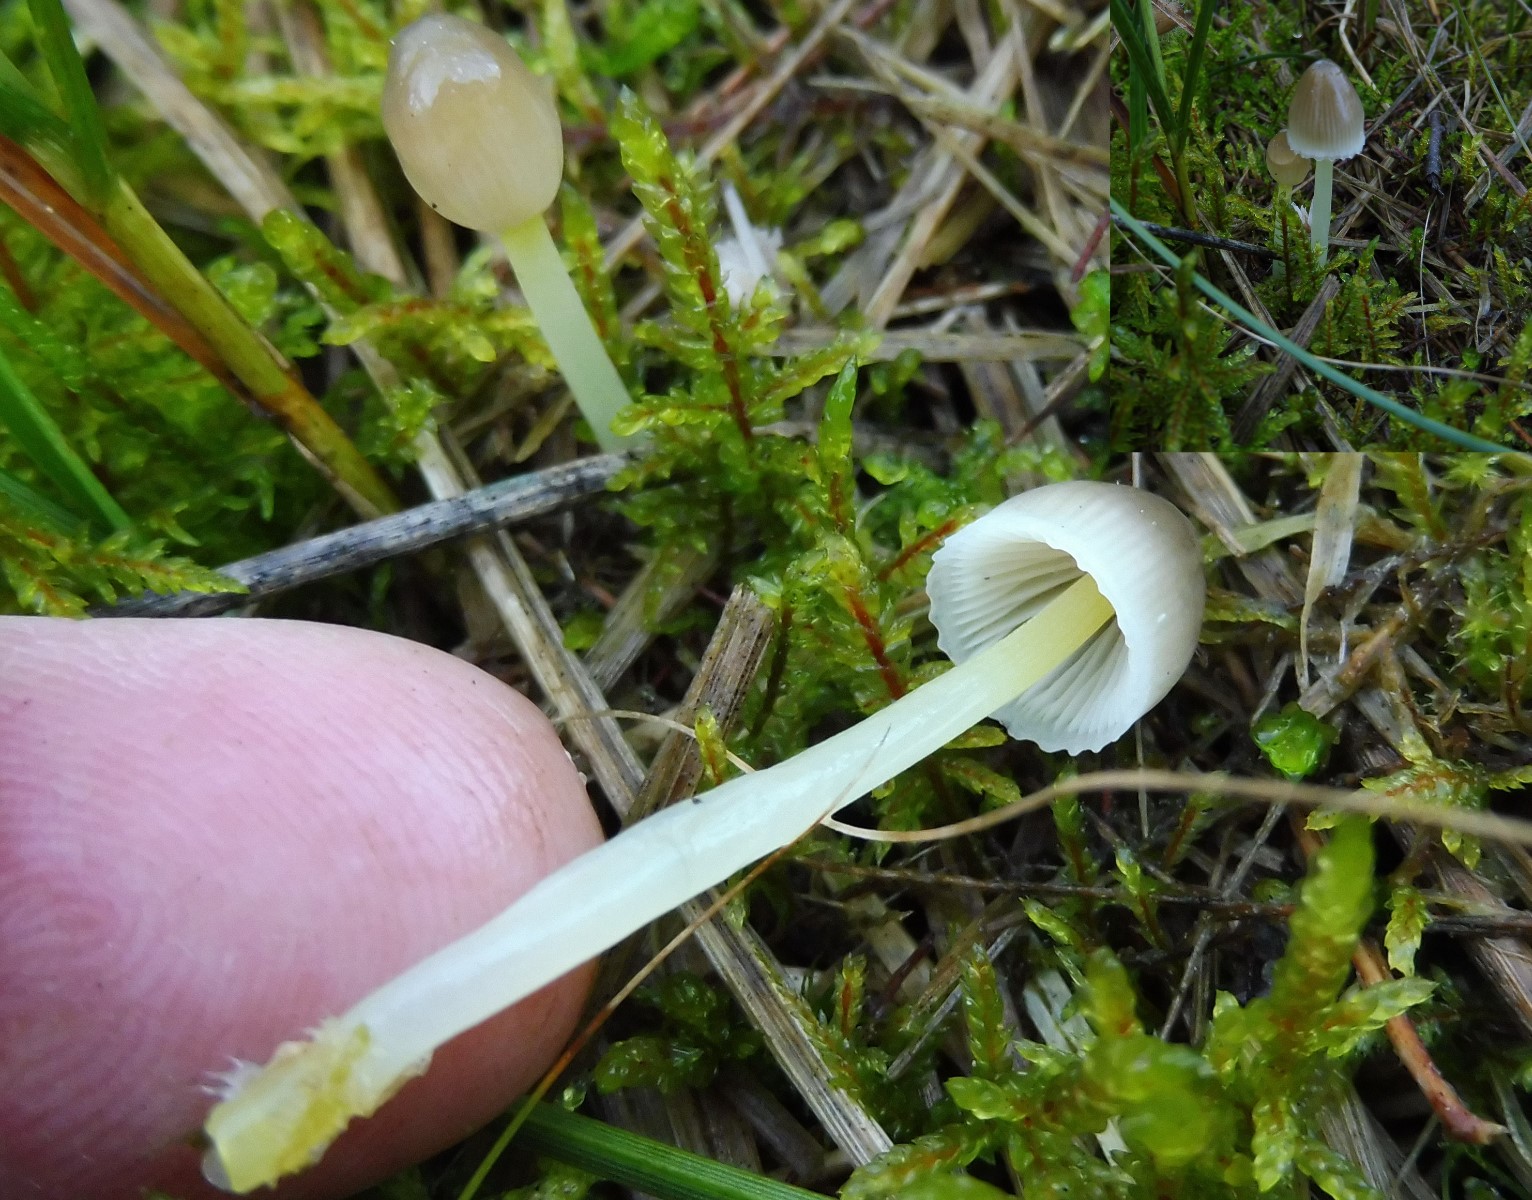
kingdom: Fungi
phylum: Basidiomycota
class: Agaricomycetes
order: Agaricales
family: Mycenaceae
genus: Mycena
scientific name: Mycena epipterygia
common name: gulstokket huesvamp
